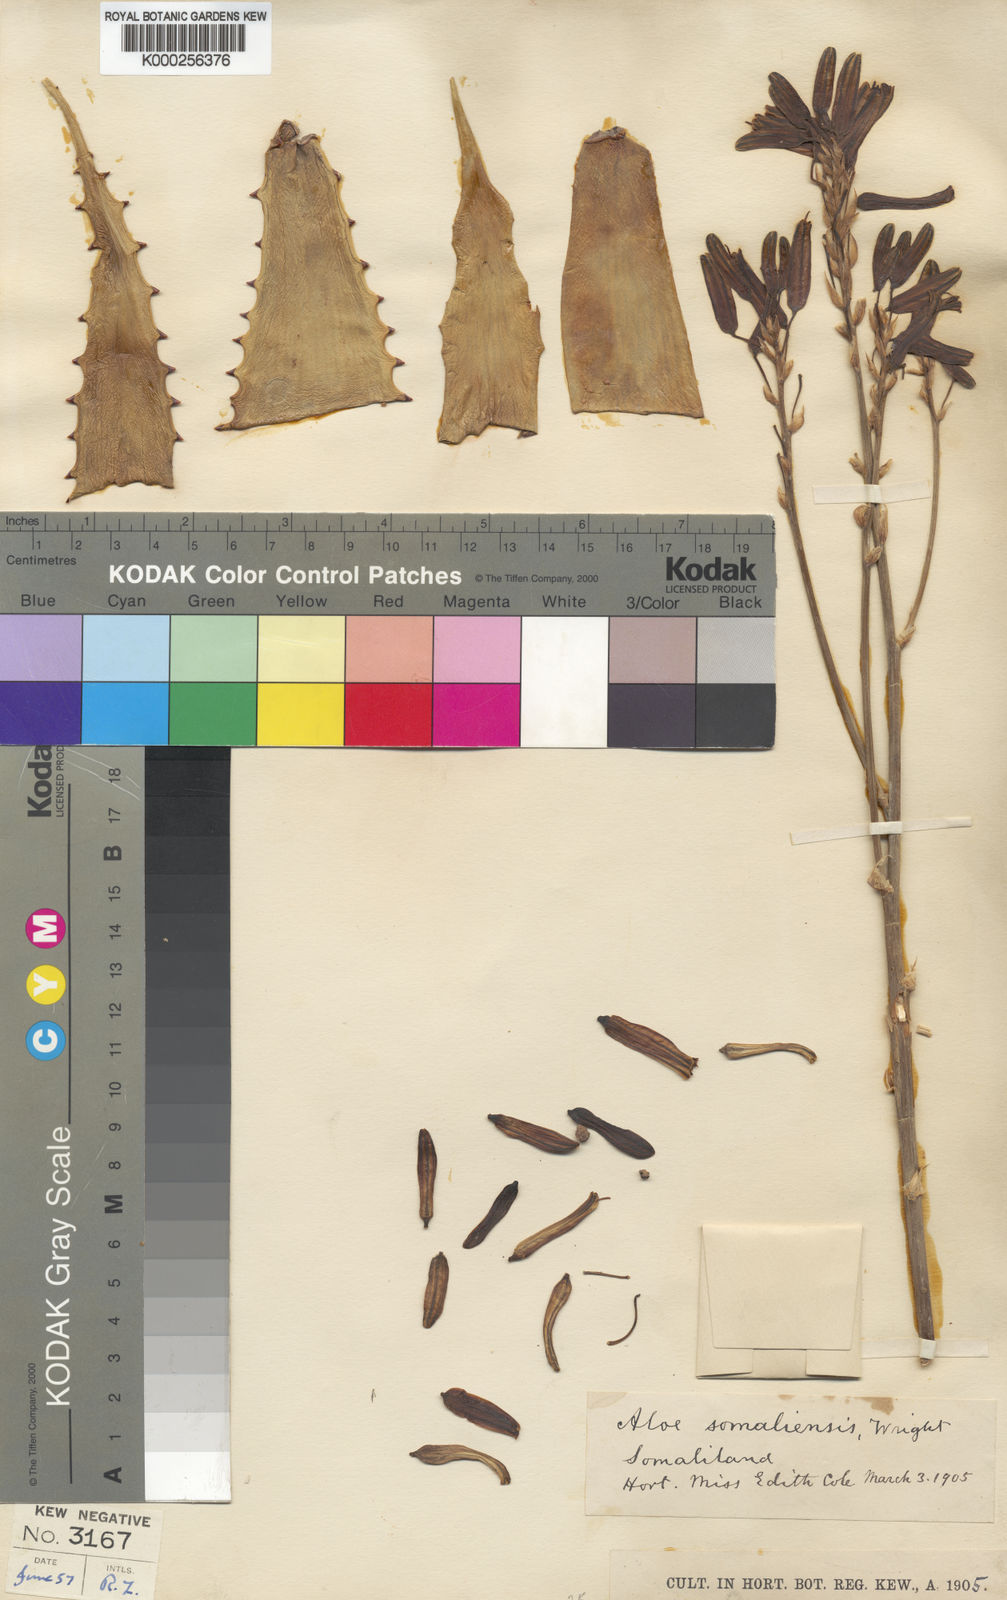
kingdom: Plantae
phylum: Tracheophyta
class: Liliopsida
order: Asparagales
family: Asphodelaceae
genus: Aloe
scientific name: Aloe
